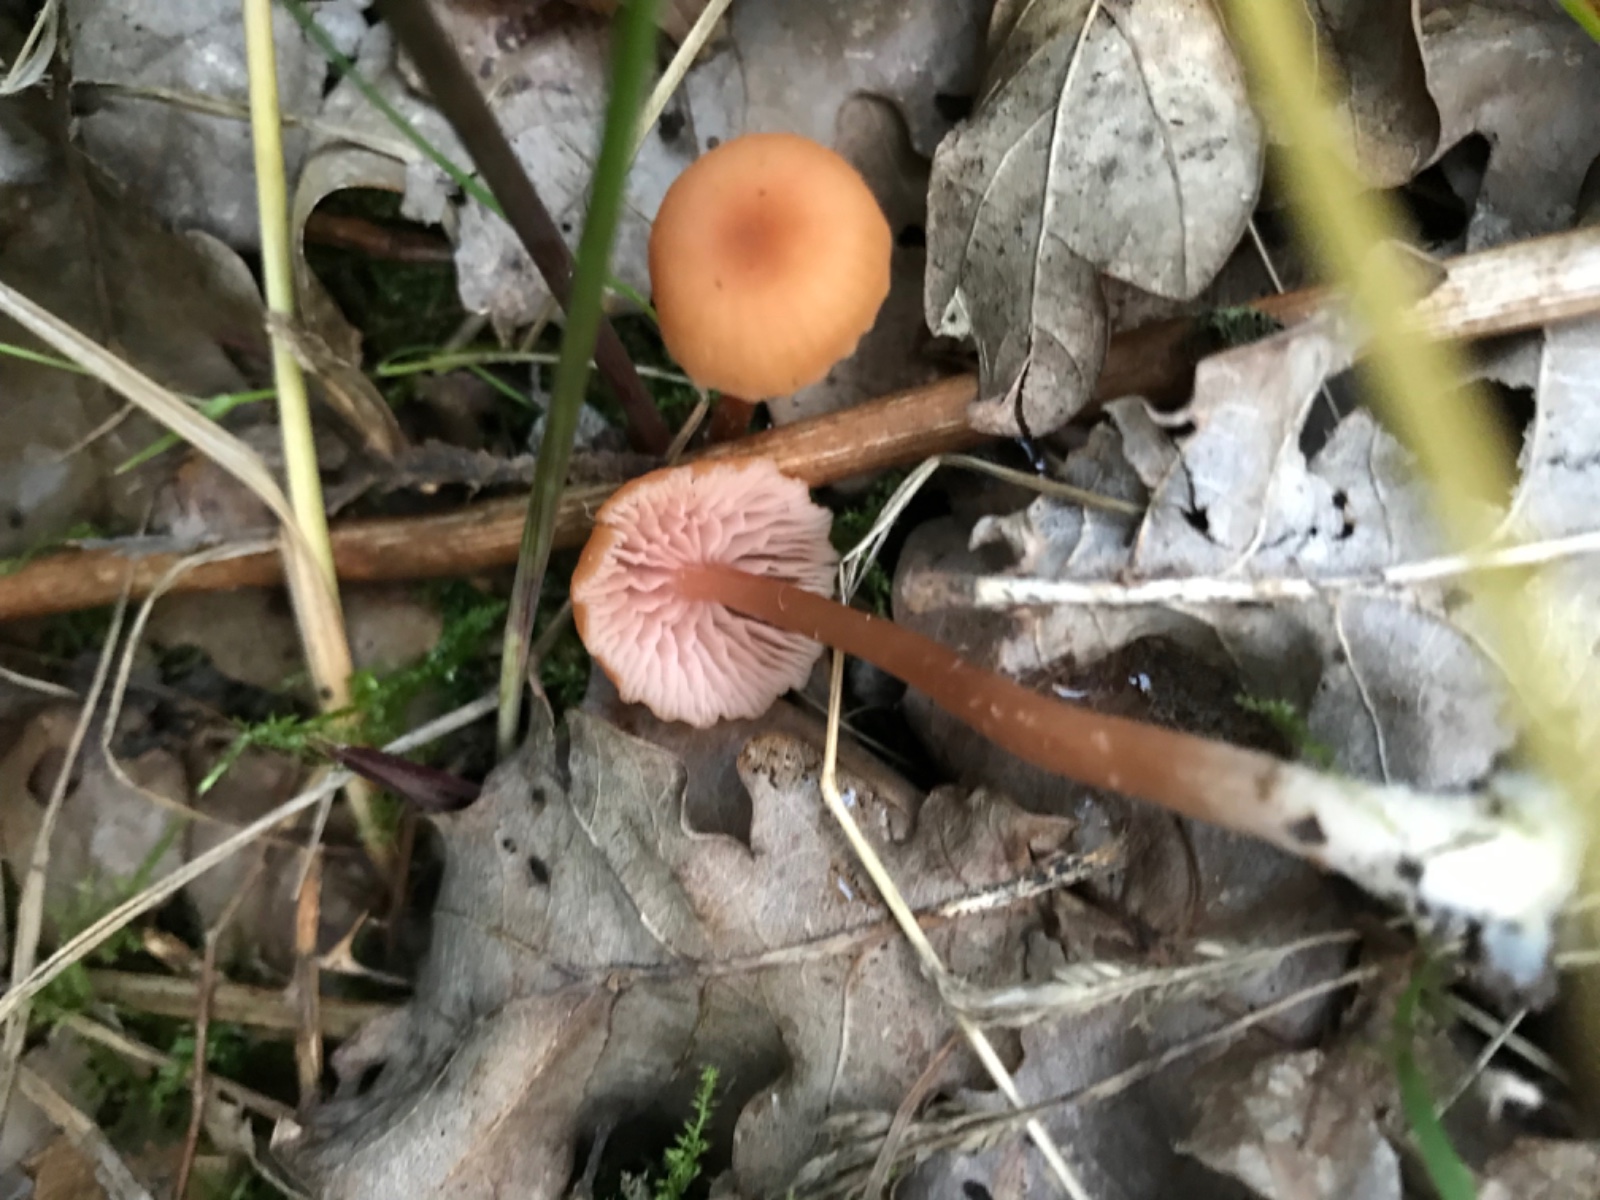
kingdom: Fungi
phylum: Basidiomycota
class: Agaricomycetes
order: Agaricales
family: Hydnangiaceae
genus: Laccaria
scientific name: Laccaria laccata
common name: rød ametysthat
